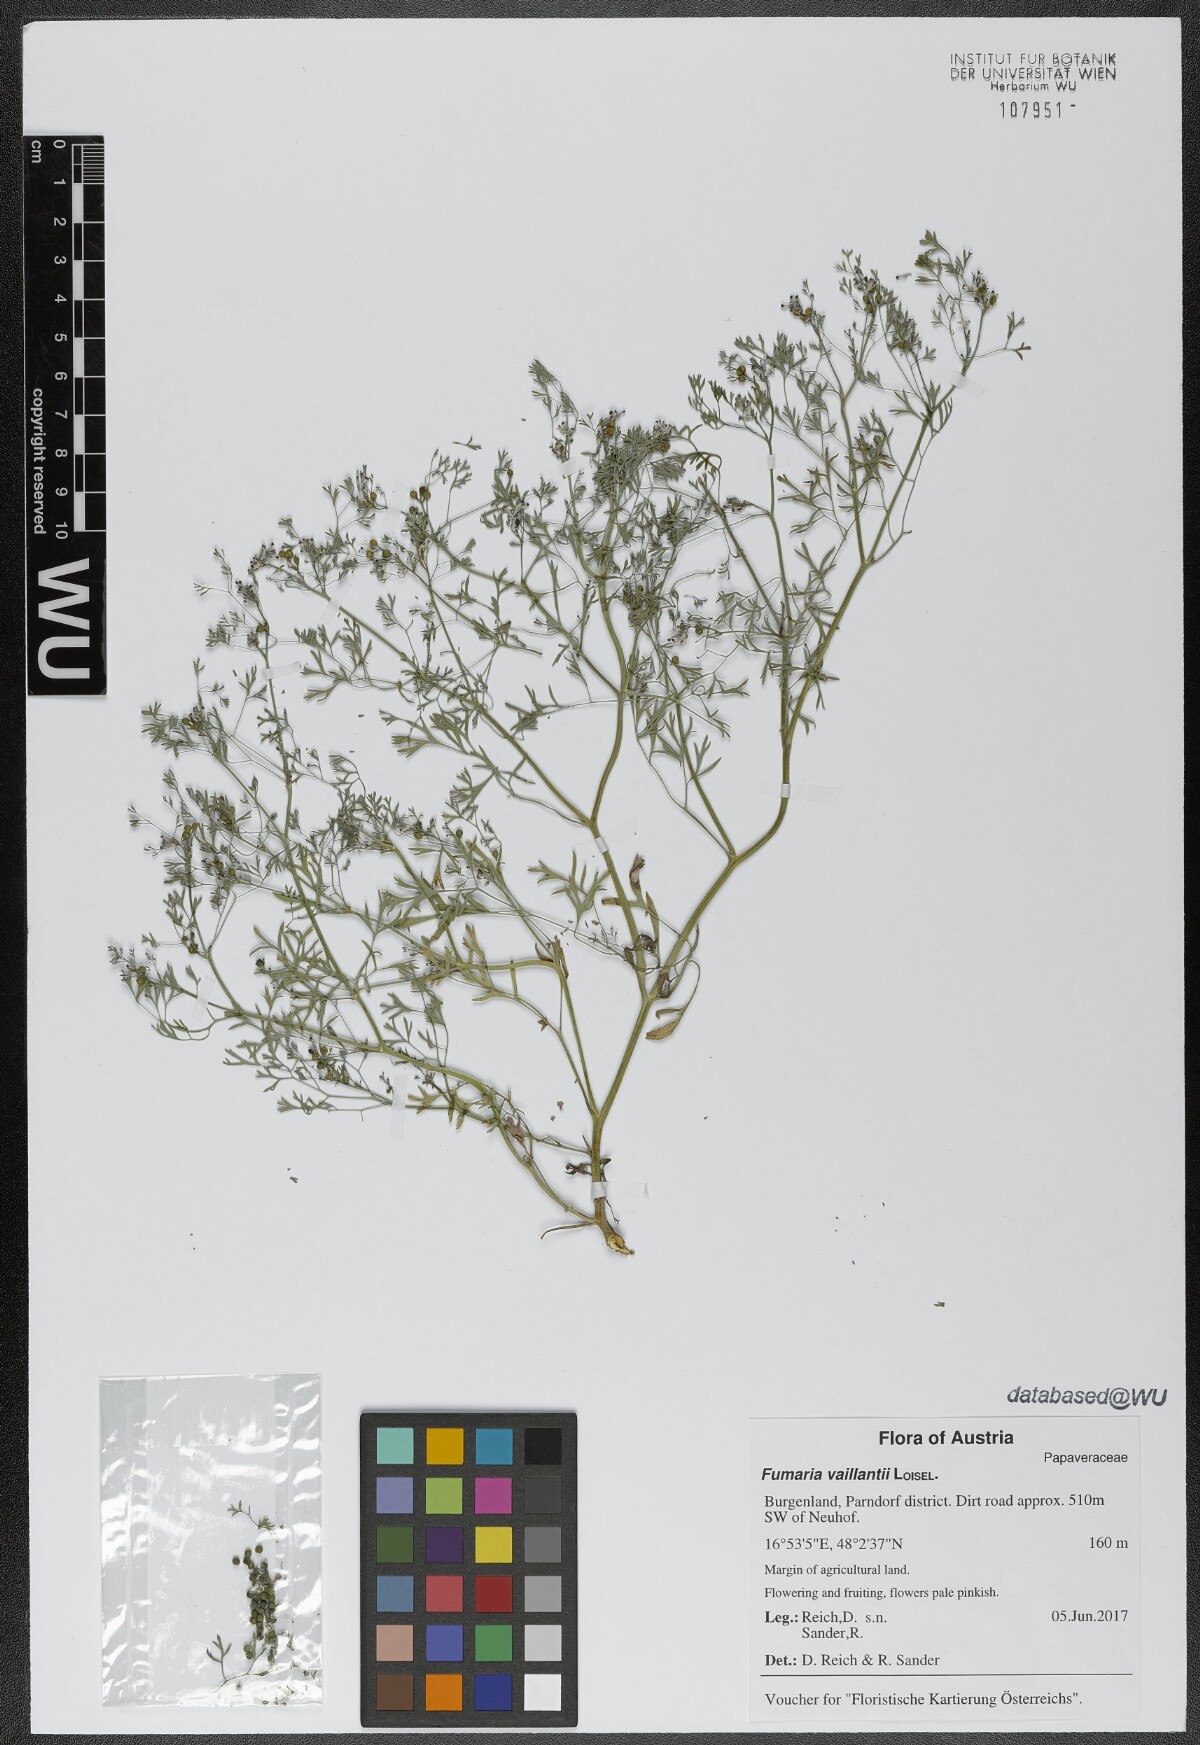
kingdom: Plantae
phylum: Tracheophyta
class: Magnoliopsida
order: Ranunculales
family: Papaveraceae
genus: Fumaria
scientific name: Fumaria vaillantii
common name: Few-flowered fumitory
